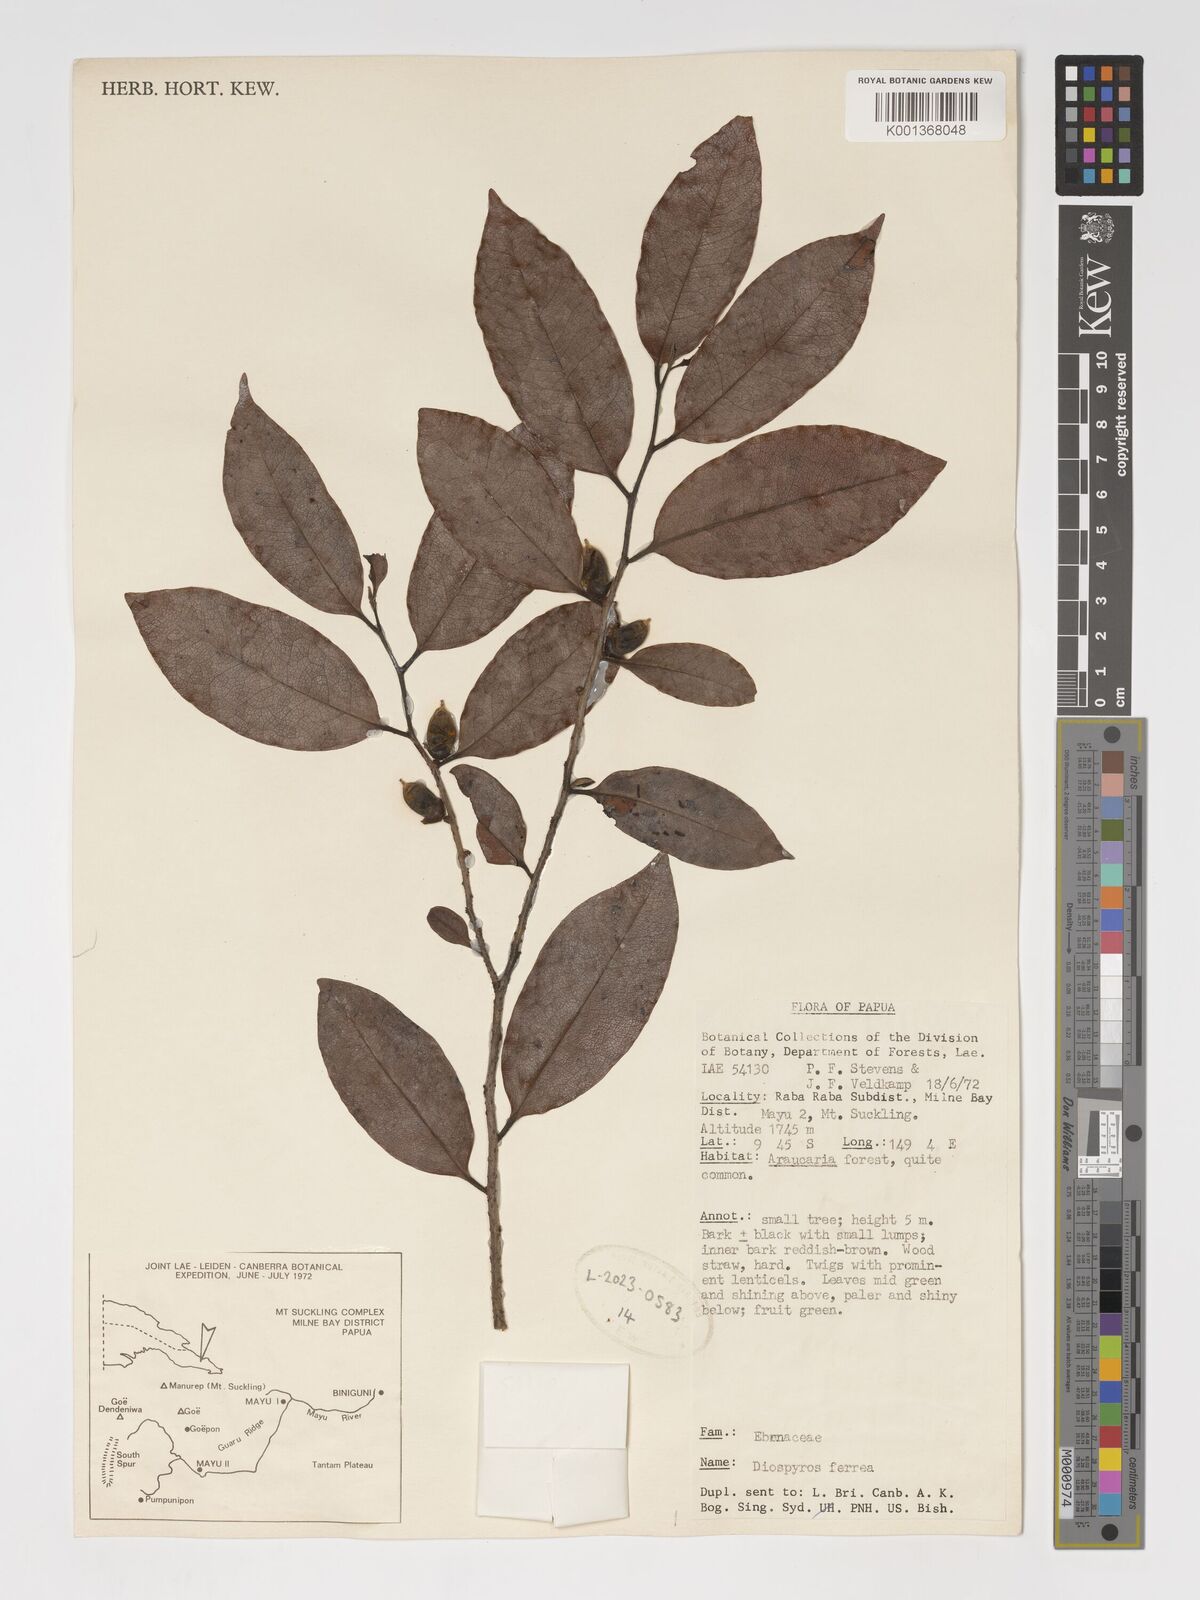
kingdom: Plantae
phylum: Tracheophyta
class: Magnoliopsida
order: Ericales
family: Ebenaceae
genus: Diospyros
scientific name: Diospyros ferrea
